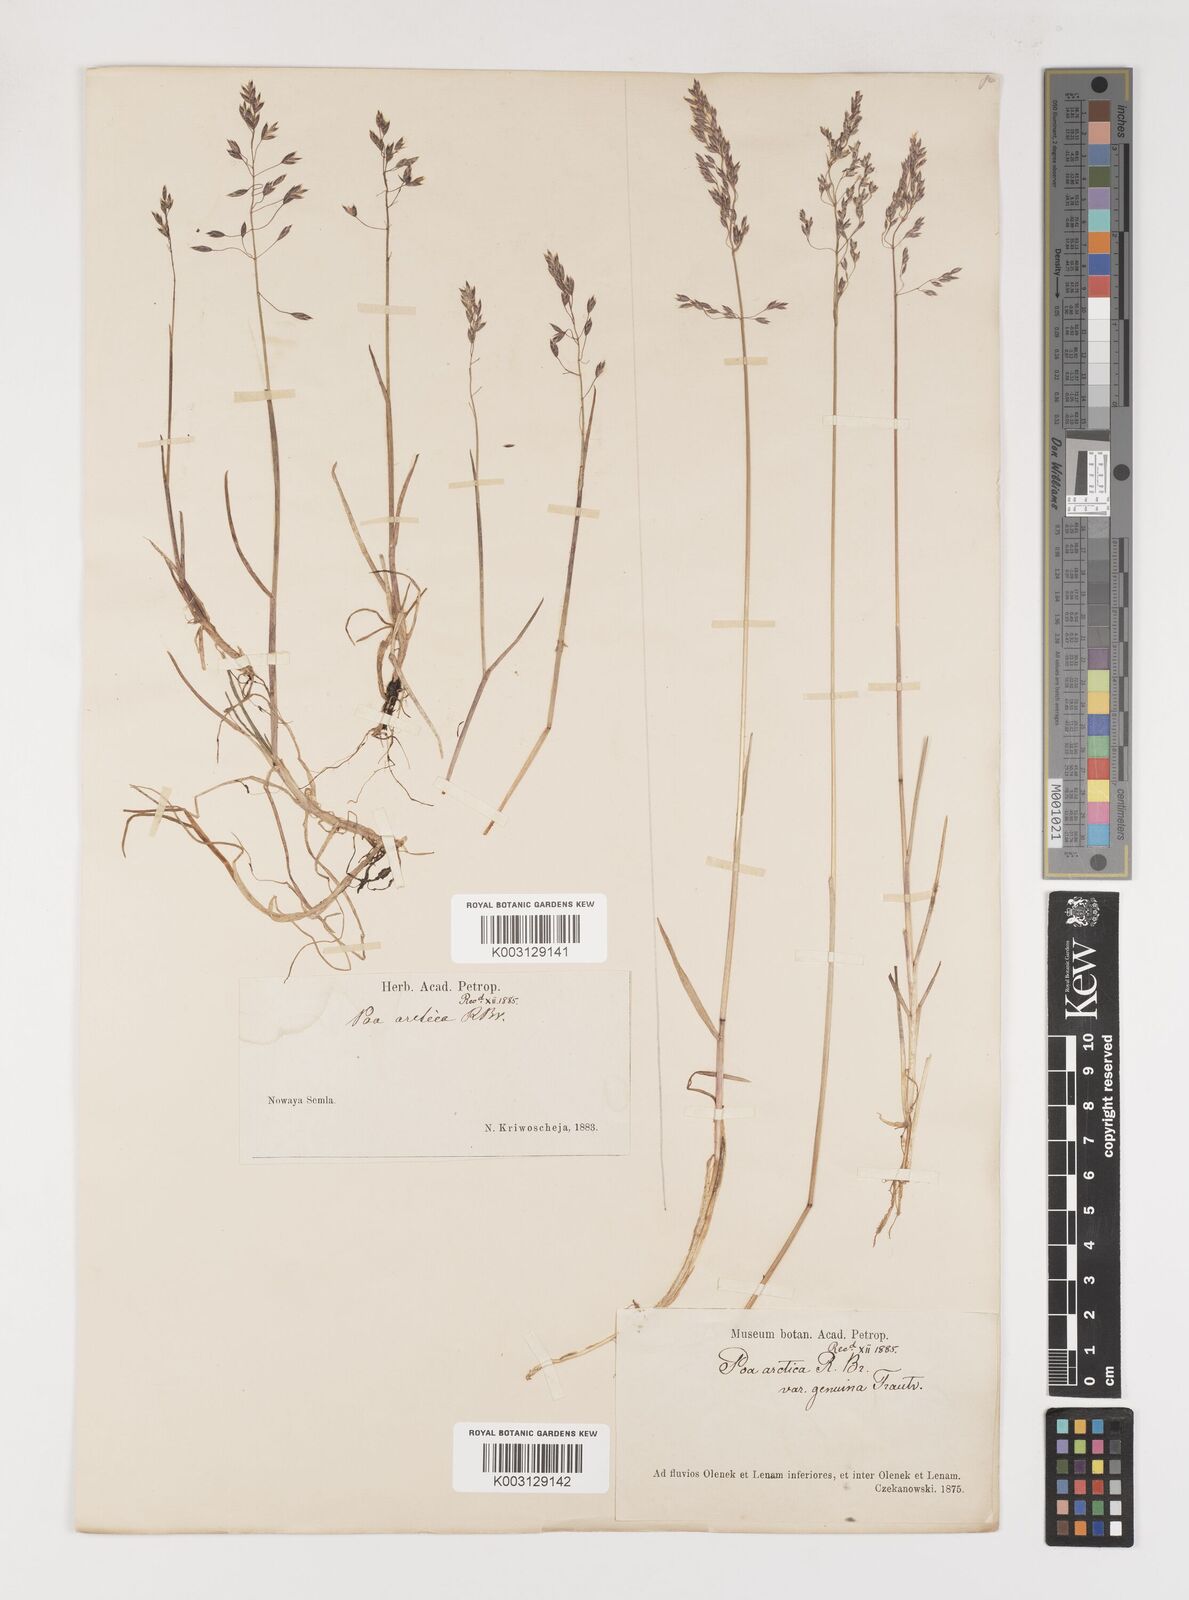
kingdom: Plantae
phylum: Tracheophyta
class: Liliopsida
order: Poales
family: Poaceae
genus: Poa
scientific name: Poa arctica
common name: Arctic bluegrass
